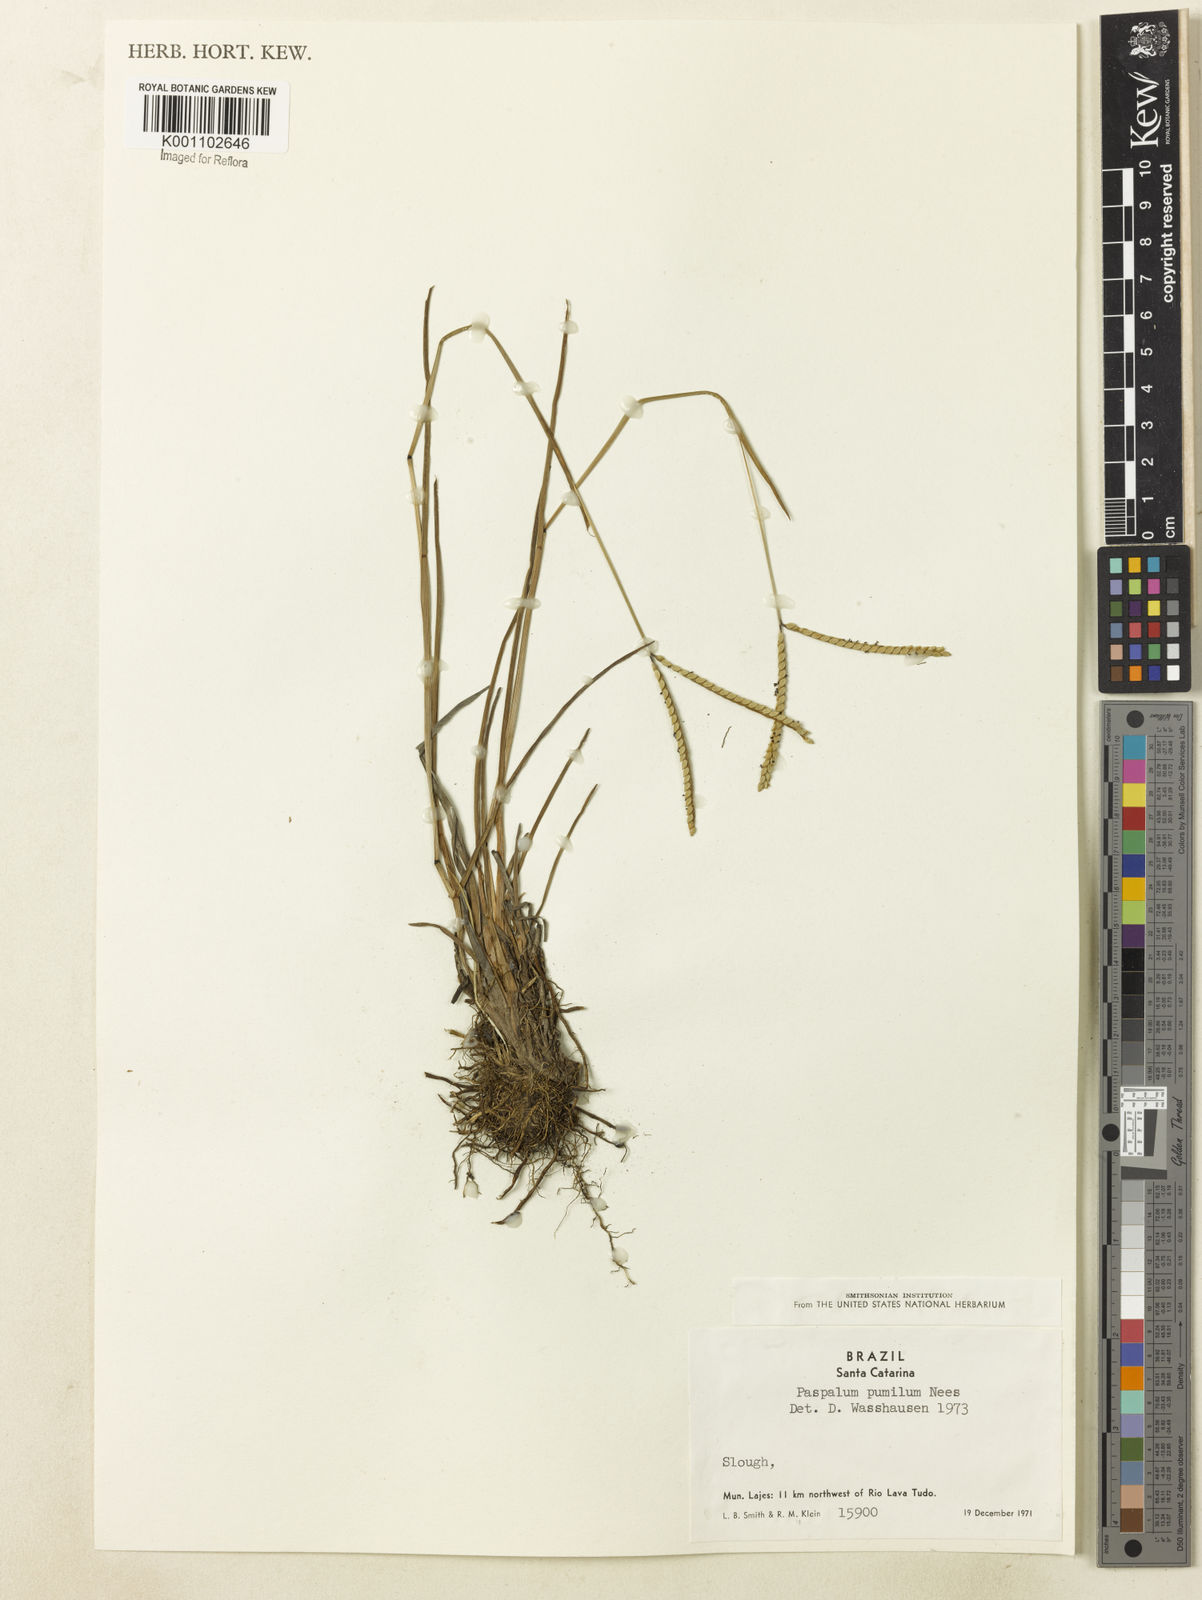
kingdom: Plantae
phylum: Tracheophyta
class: Liliopsida
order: Poales
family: Poaceae
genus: Paspalum
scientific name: Paspalum ramboi
